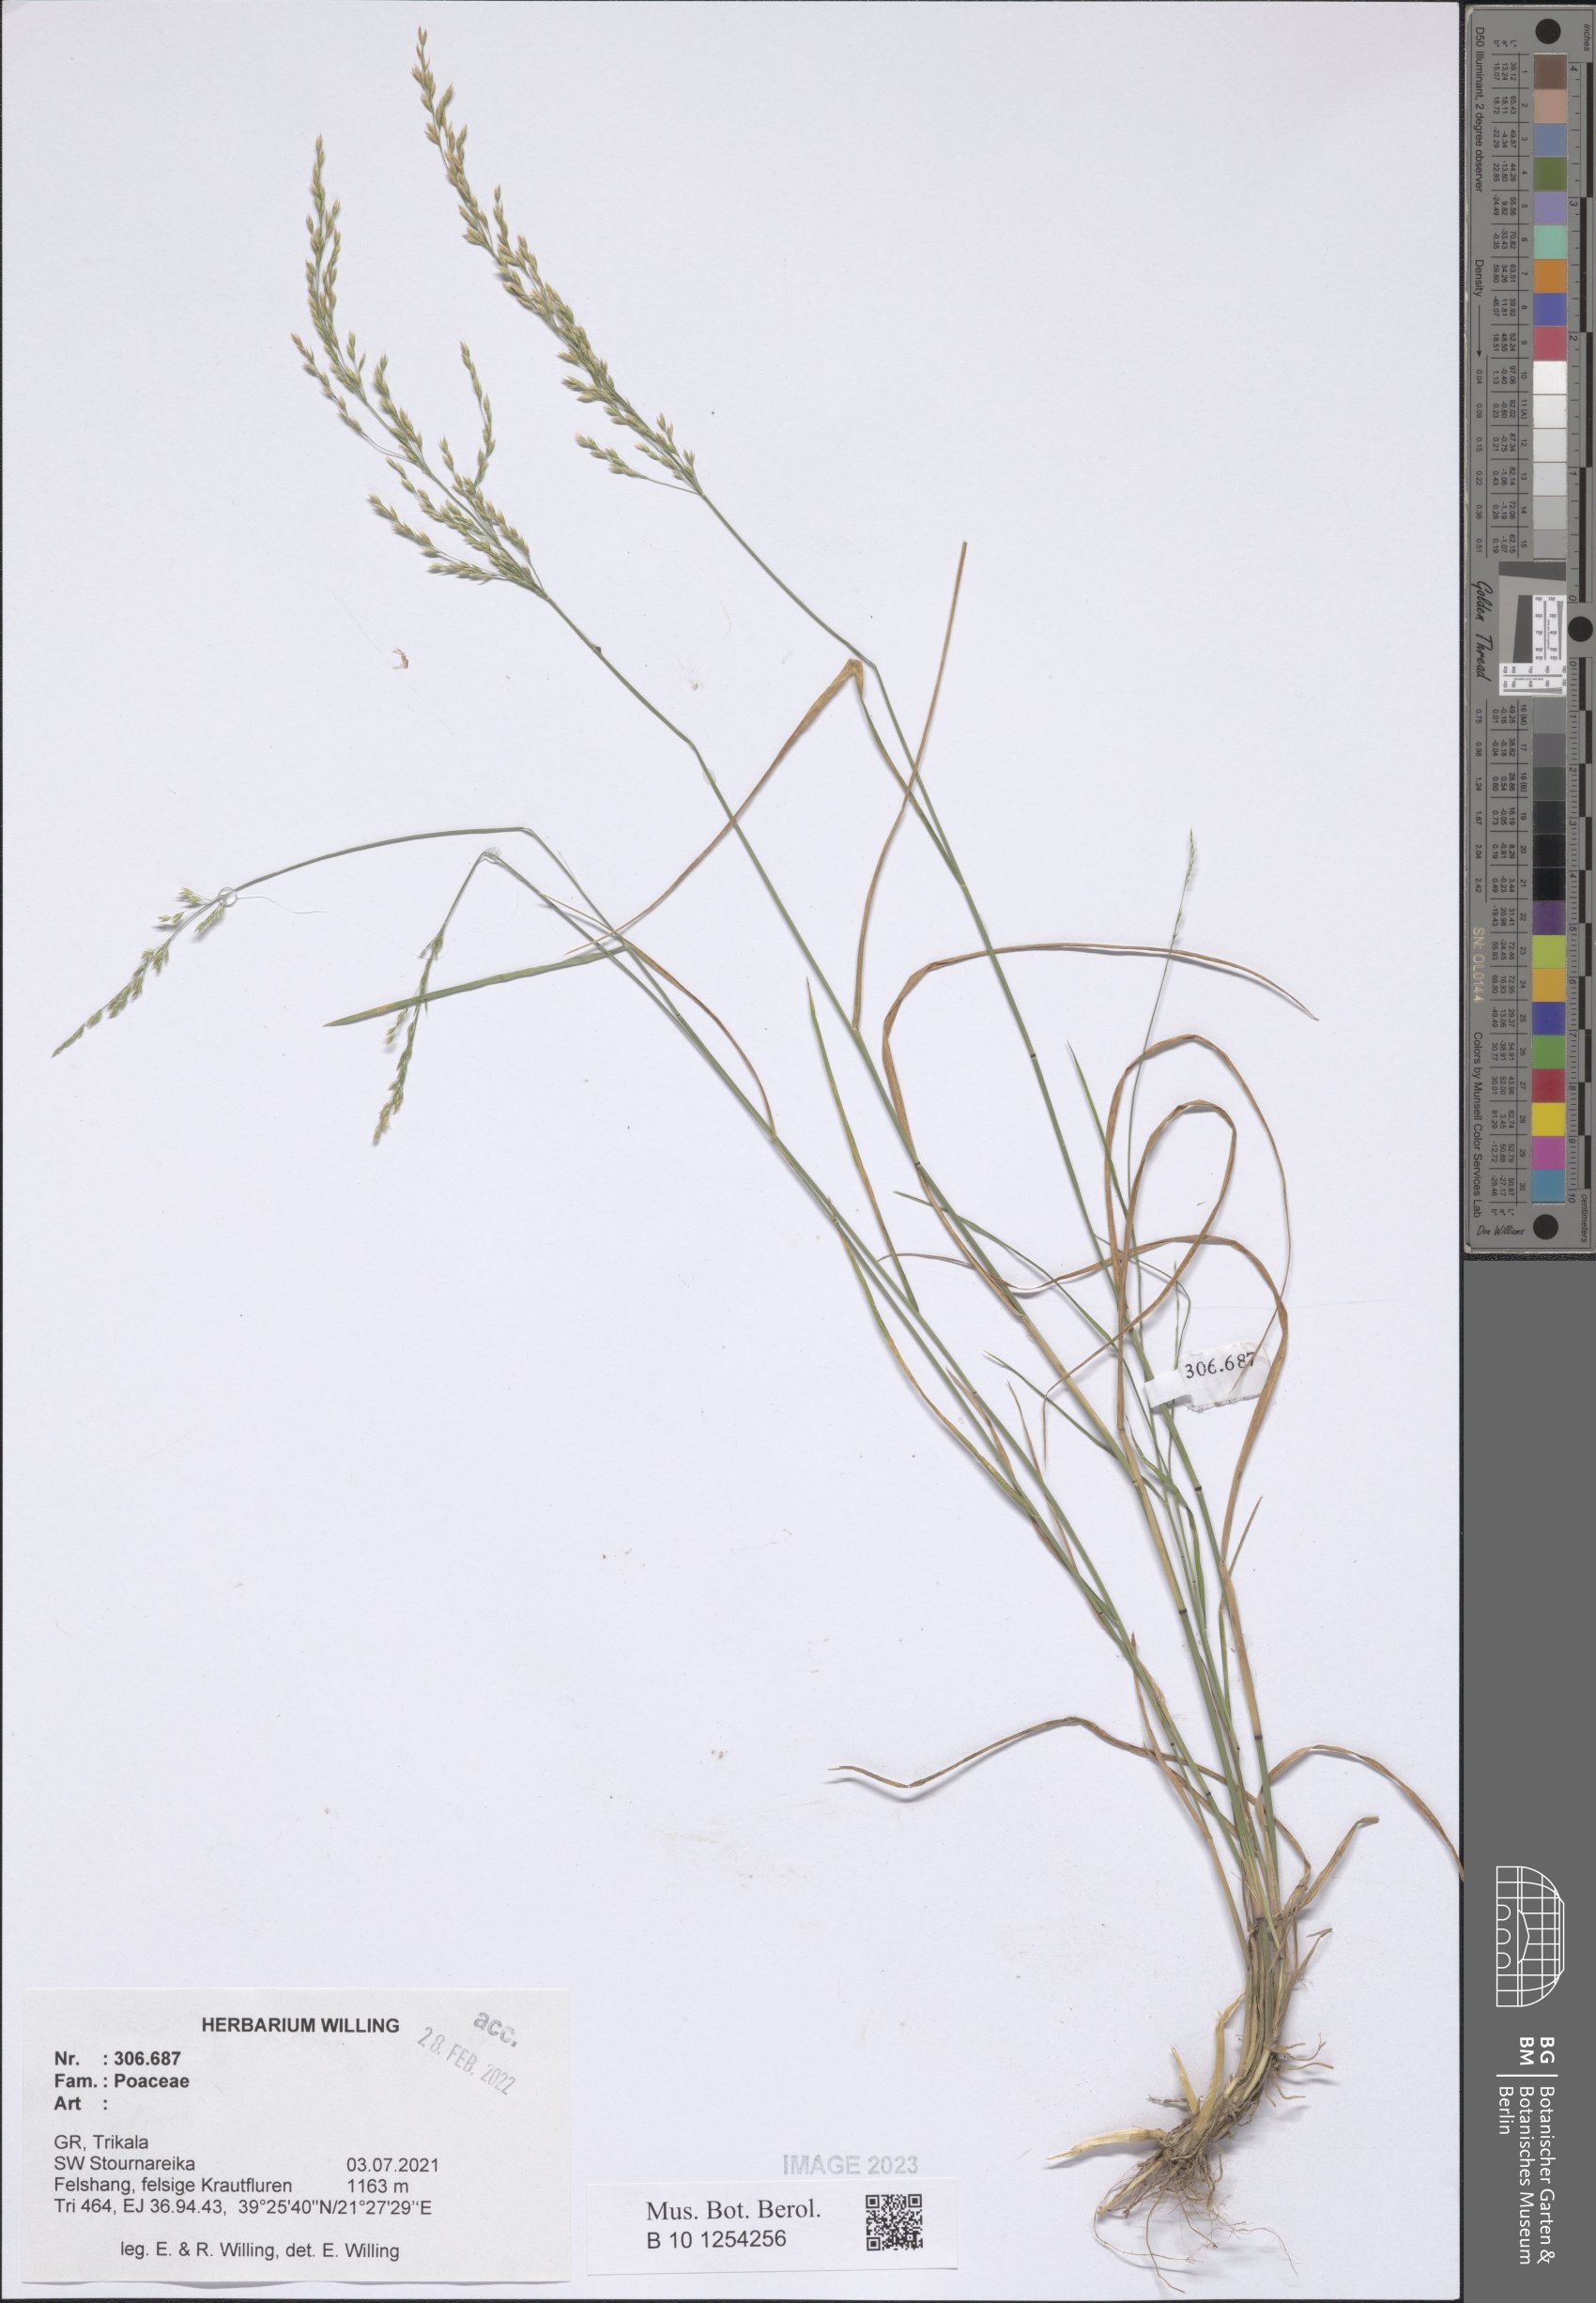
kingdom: Plantae
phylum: Tracheophyta
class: Liliopsida
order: Poales
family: Poaceae
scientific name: Poaceae
